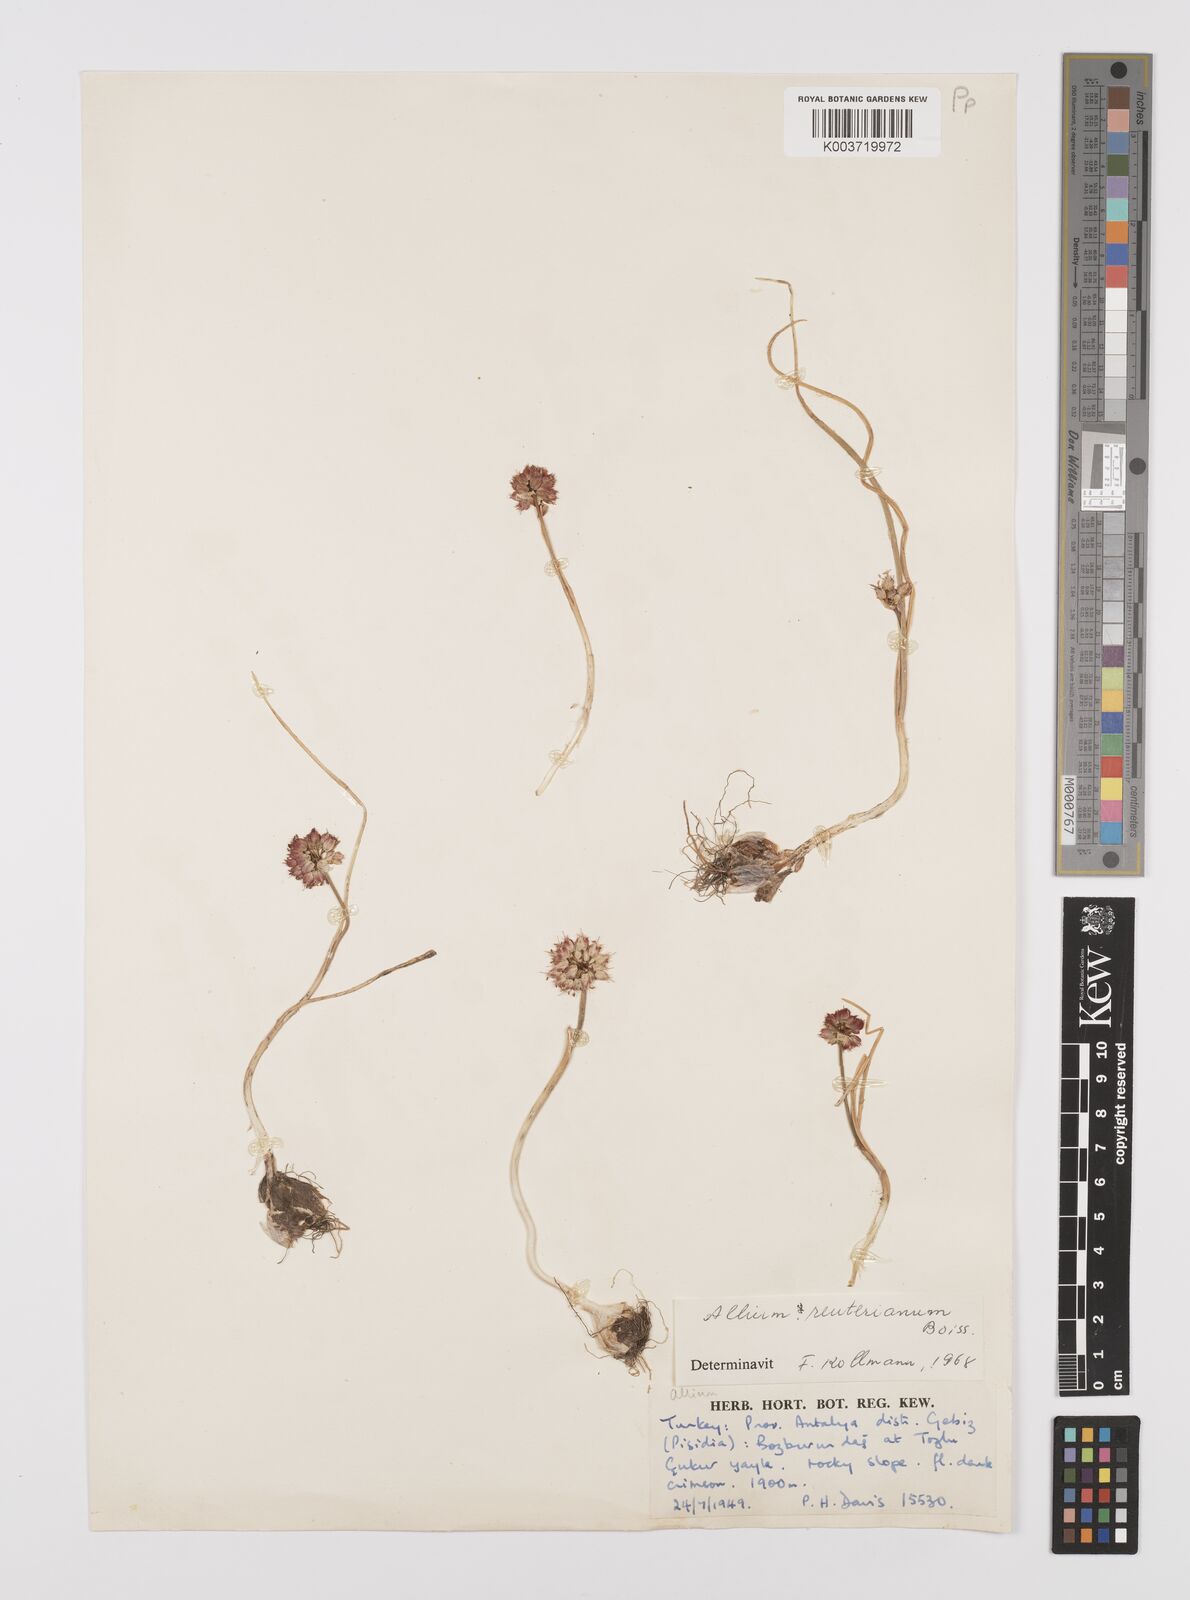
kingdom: Plantae
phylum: Tracheophyta
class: Liliopsida
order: Asparagales
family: Amaryllidaceae
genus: Allium
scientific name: Allium reuterianum
